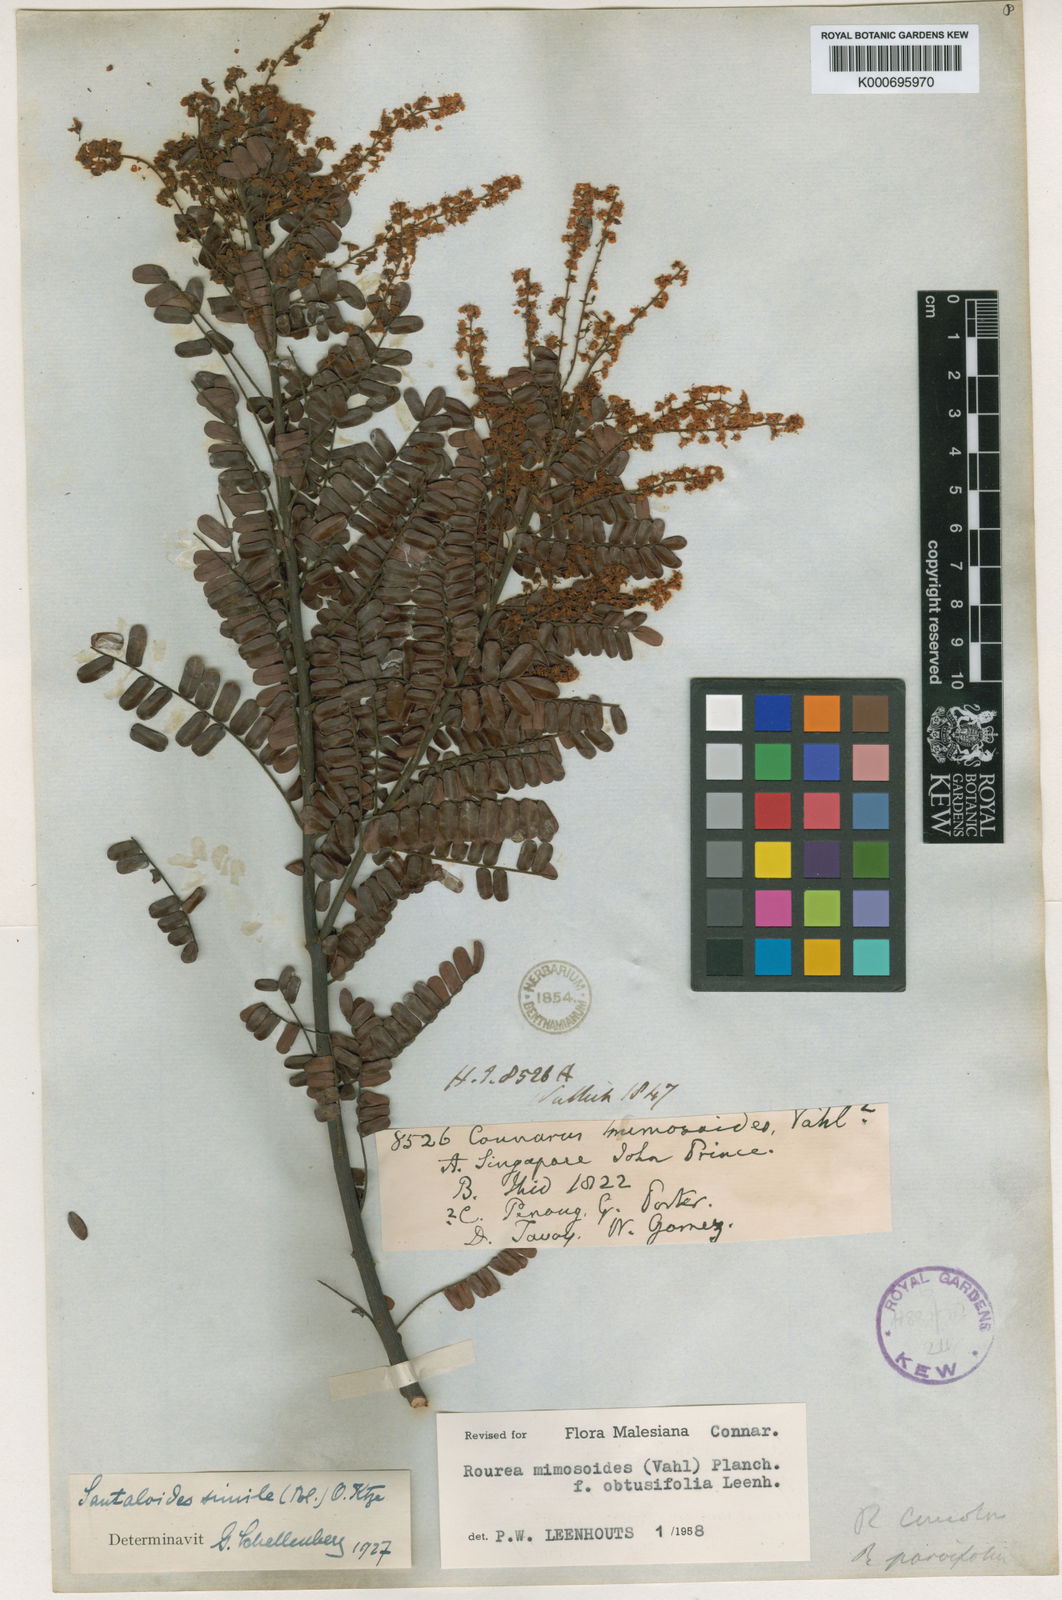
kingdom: Plantae
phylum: Tracheophyta
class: Magnoliopsida
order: Oxalidales
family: Connaraceae
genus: Rourea
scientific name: Rourea mimosoides
